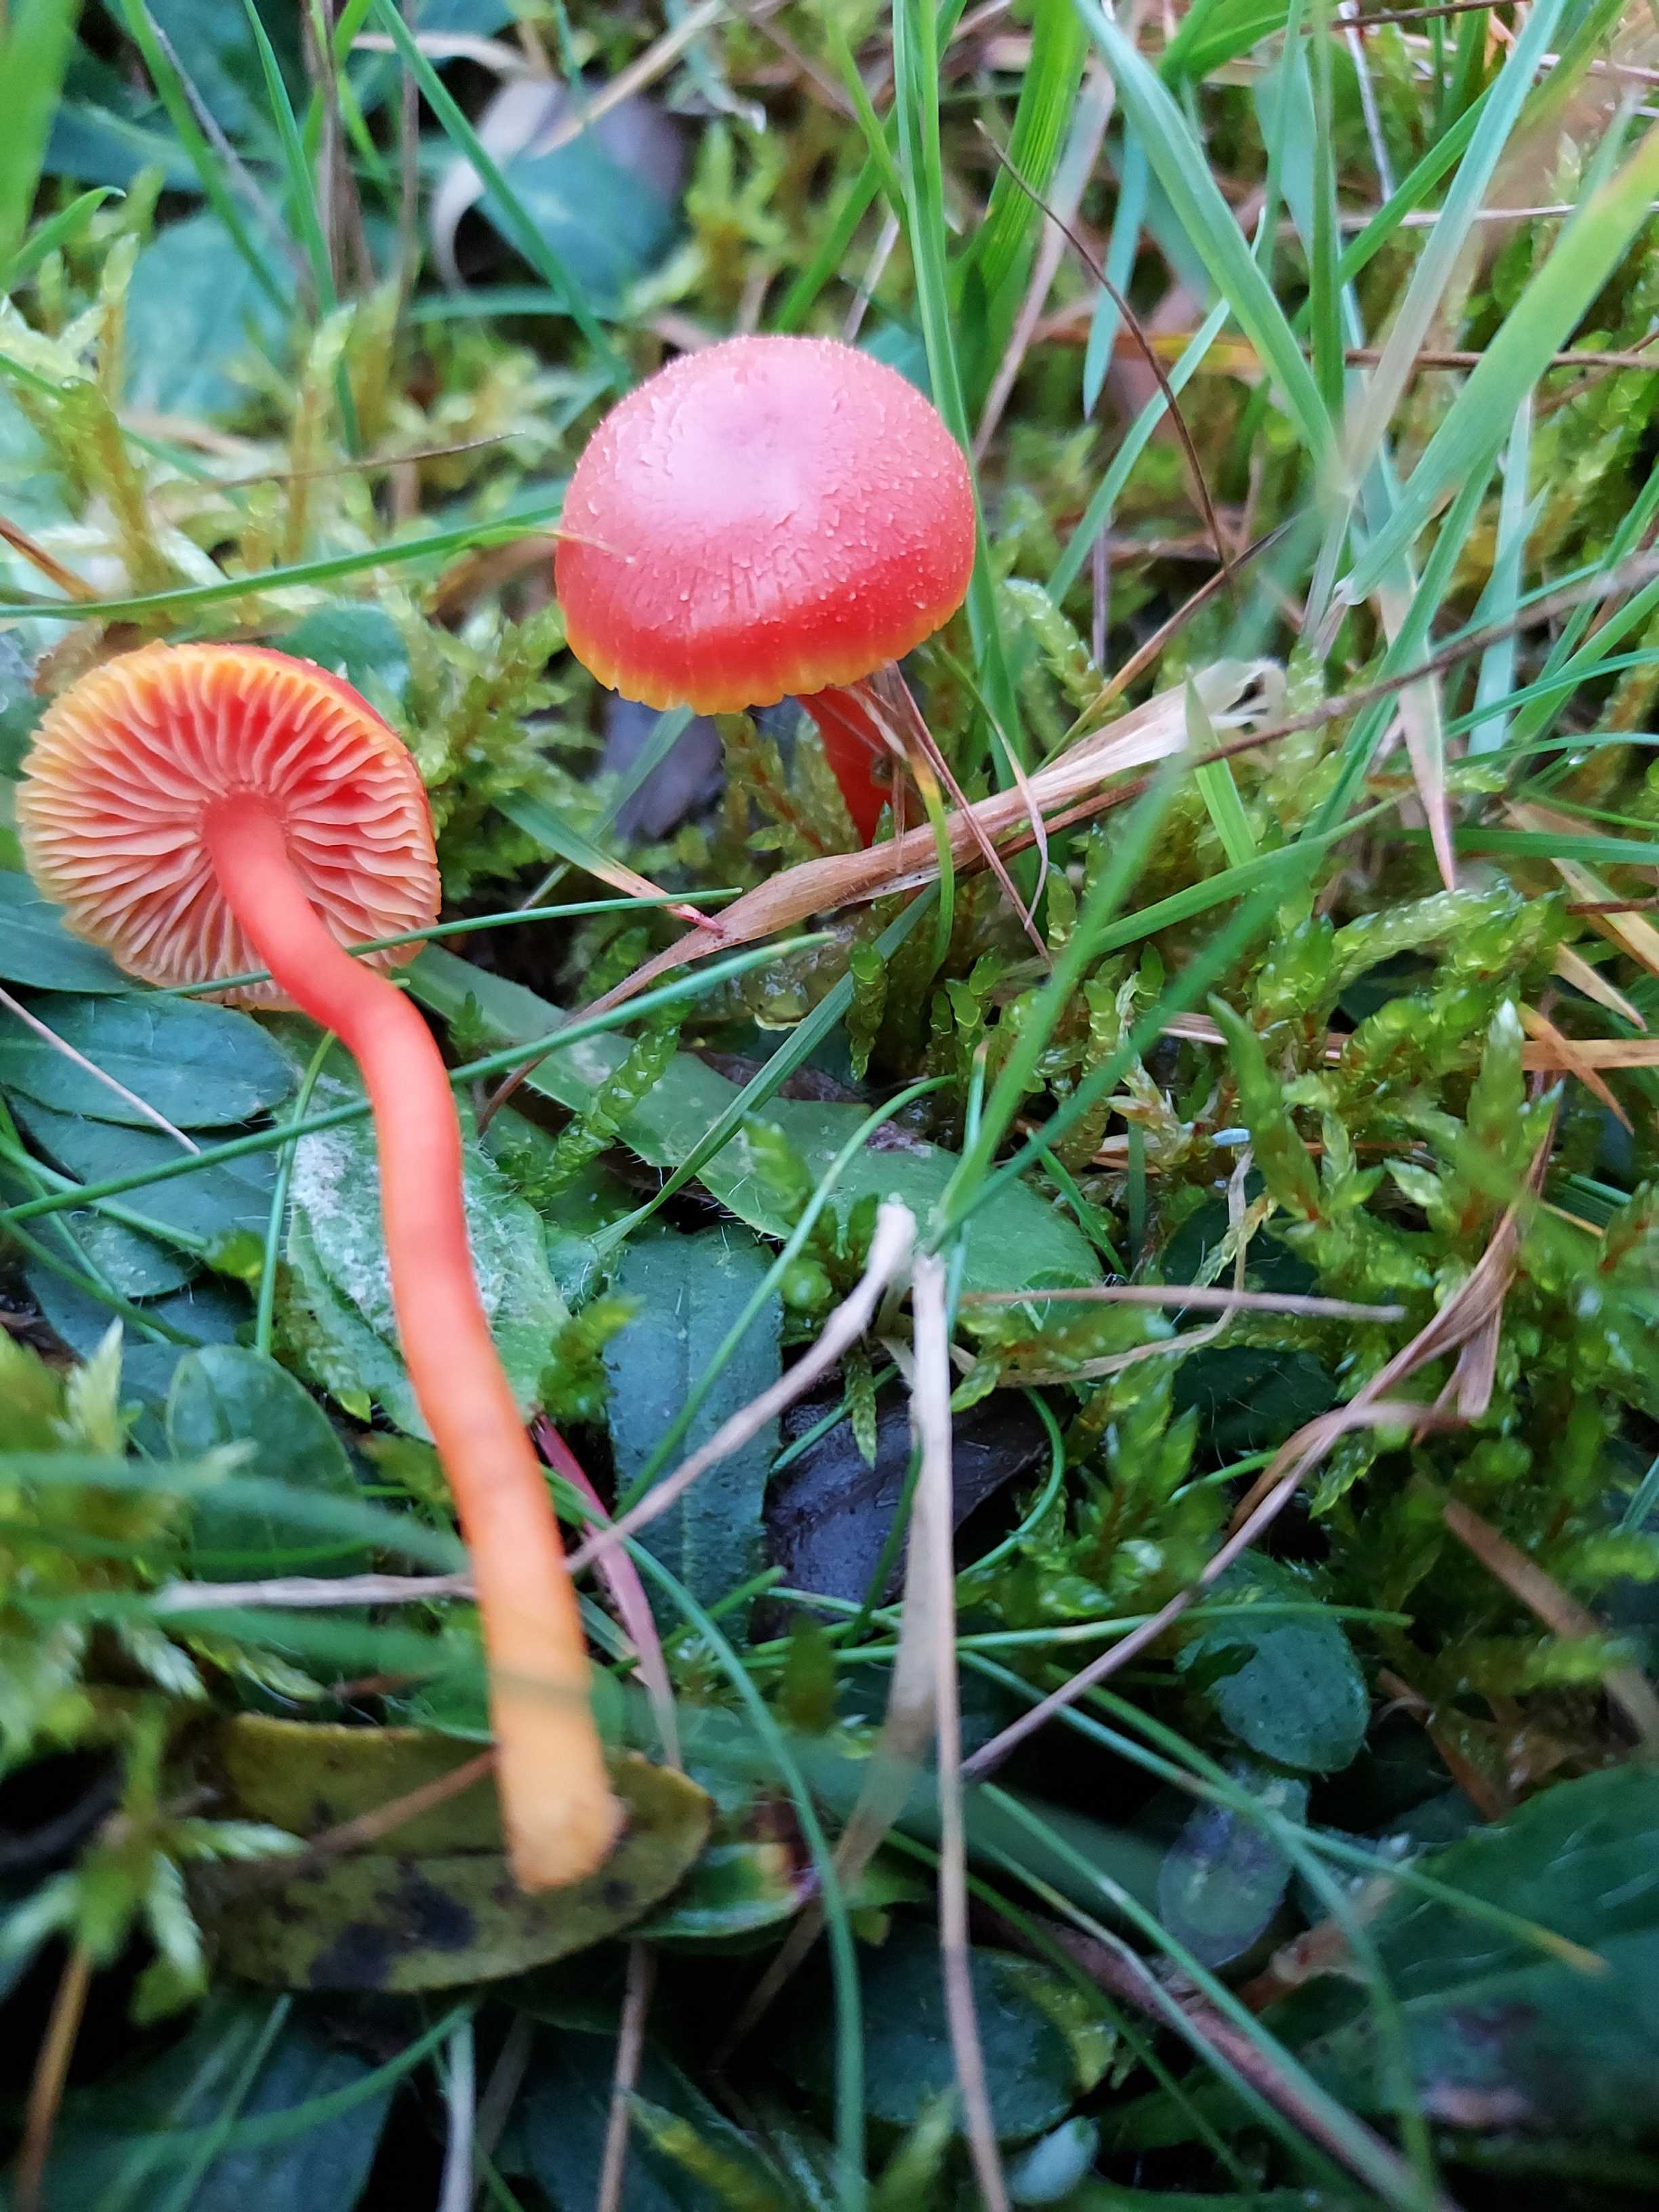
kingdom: Fungi
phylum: Basidiomycota
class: Agaricomycetes
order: Agaricales
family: Hygrophoraceae
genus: Hygrocybe
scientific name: Hygrocybe miniata
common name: mønje-vokshat
